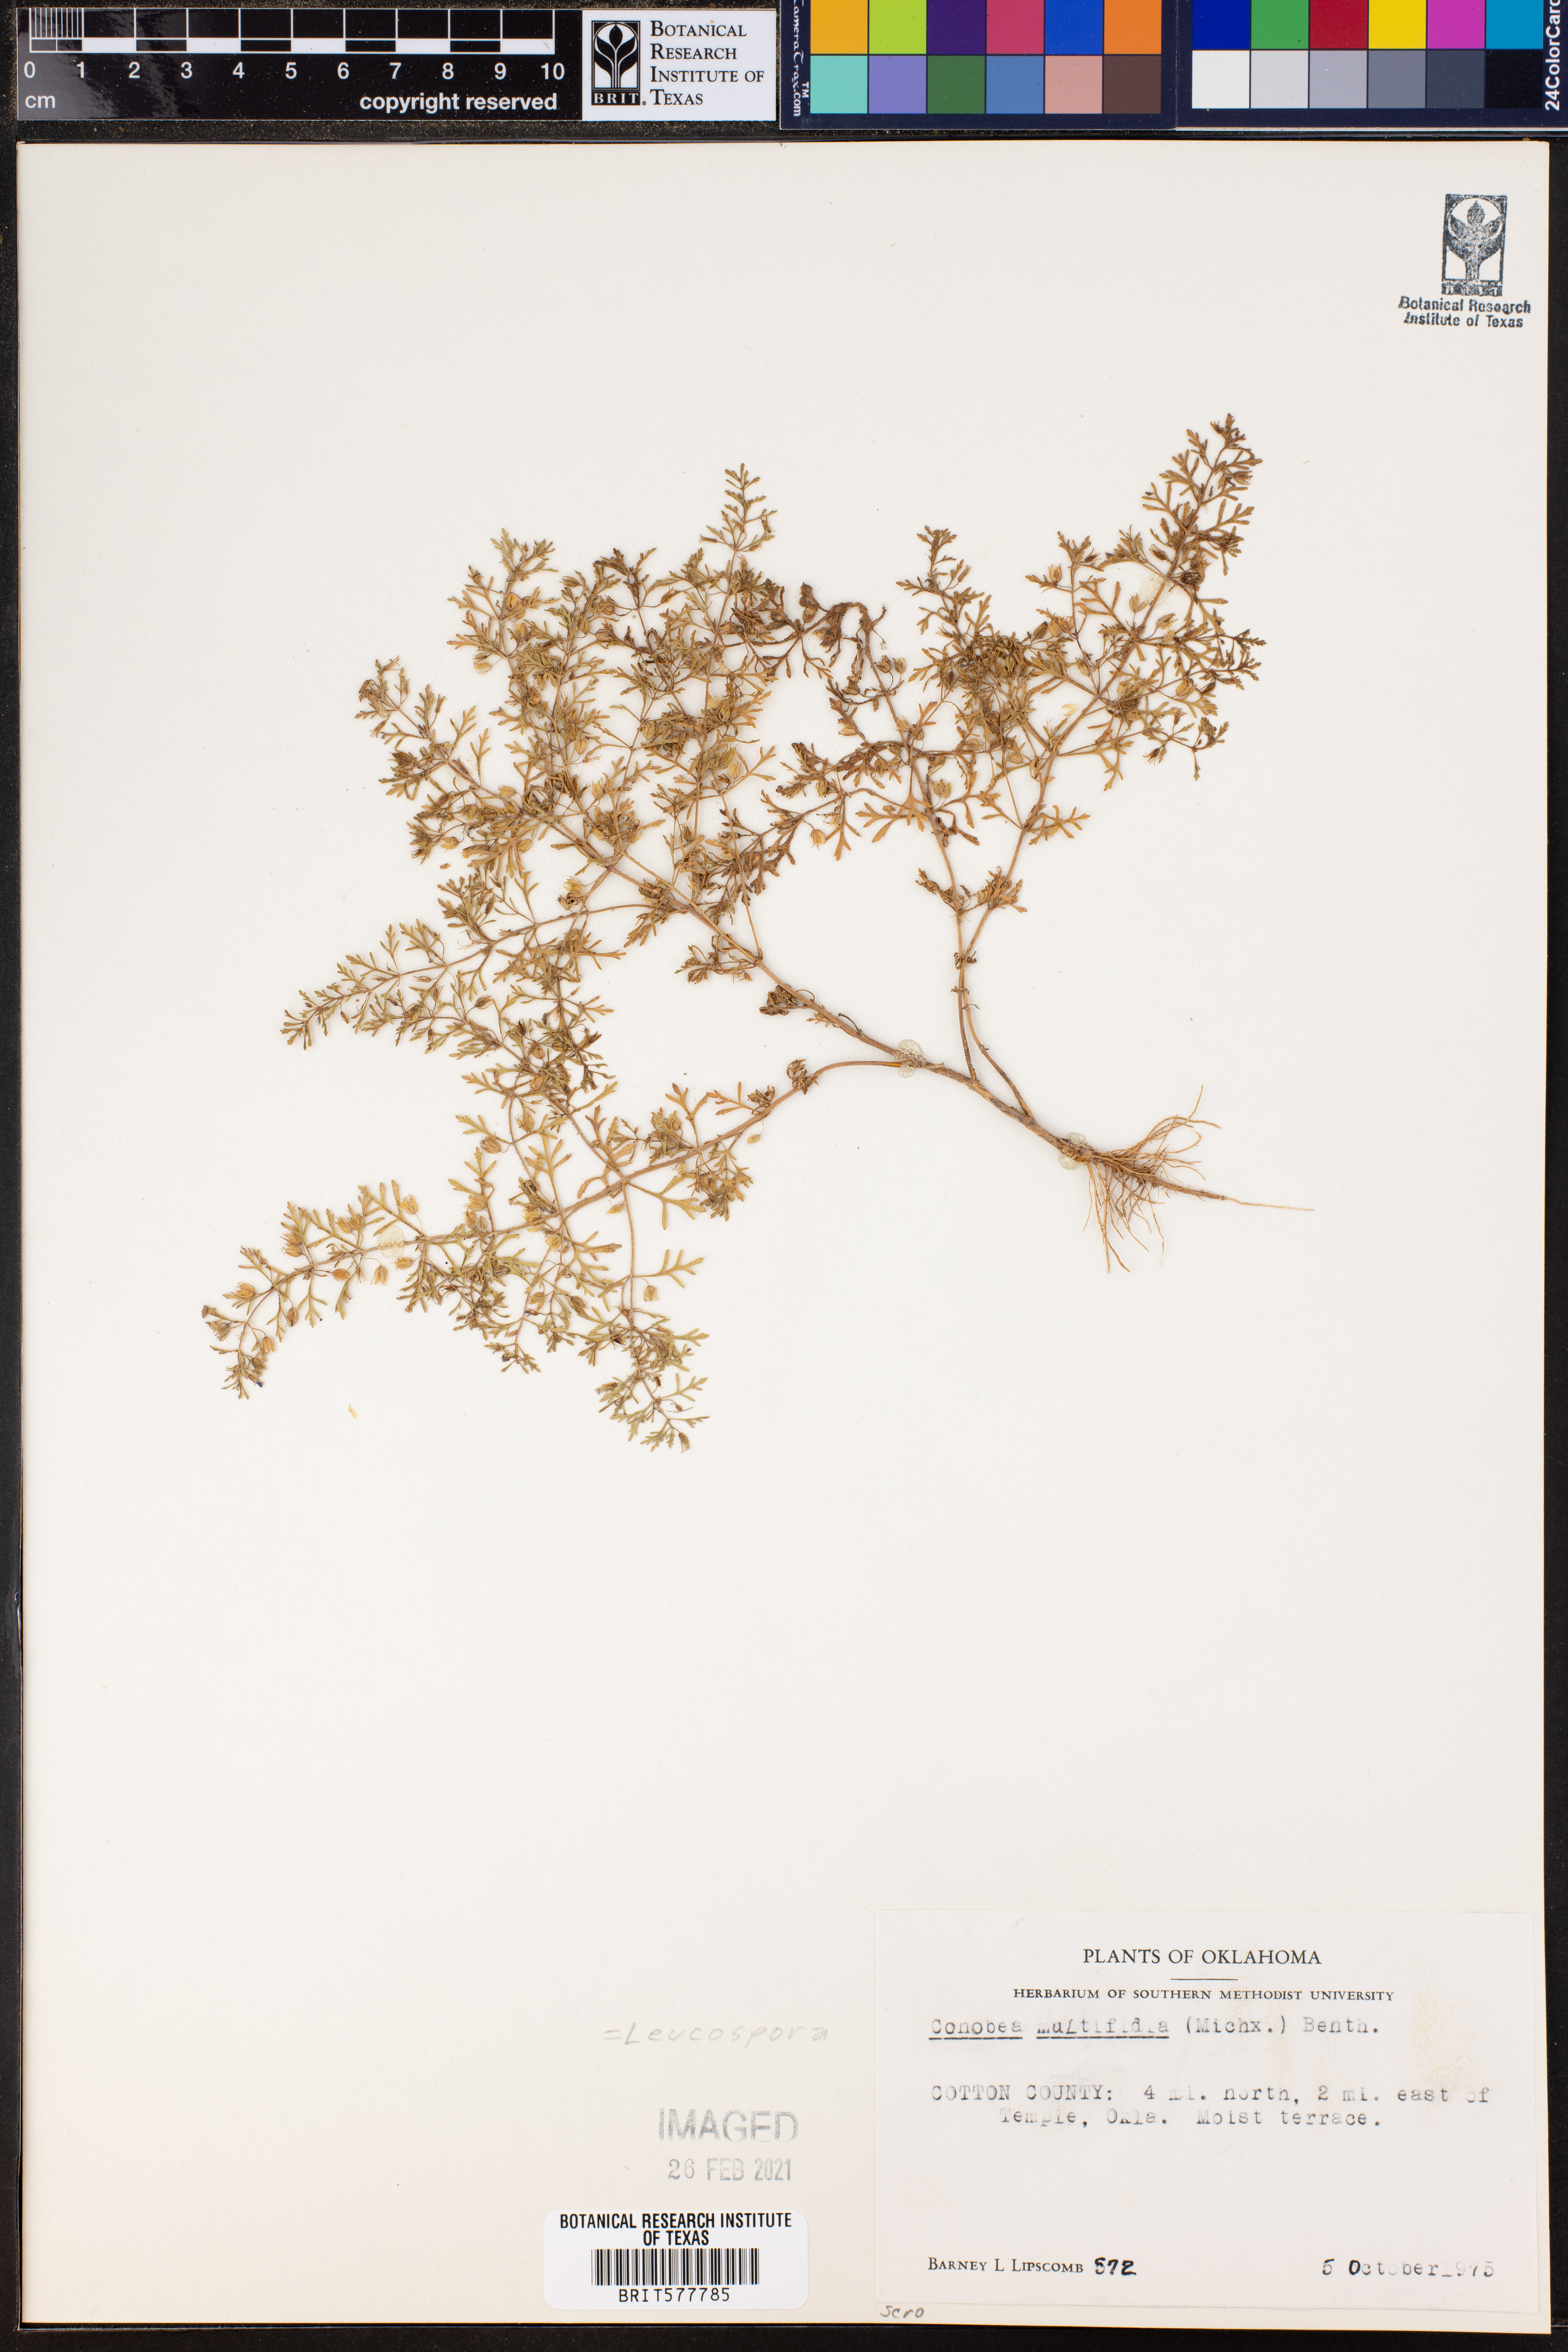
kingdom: Plantae
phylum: Tracheophyta
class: Magnoliopsida
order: Lamiales
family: Plantaginaceae
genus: Leucospora
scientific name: Leucospora multifida
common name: Narrow-leaf paleseed
